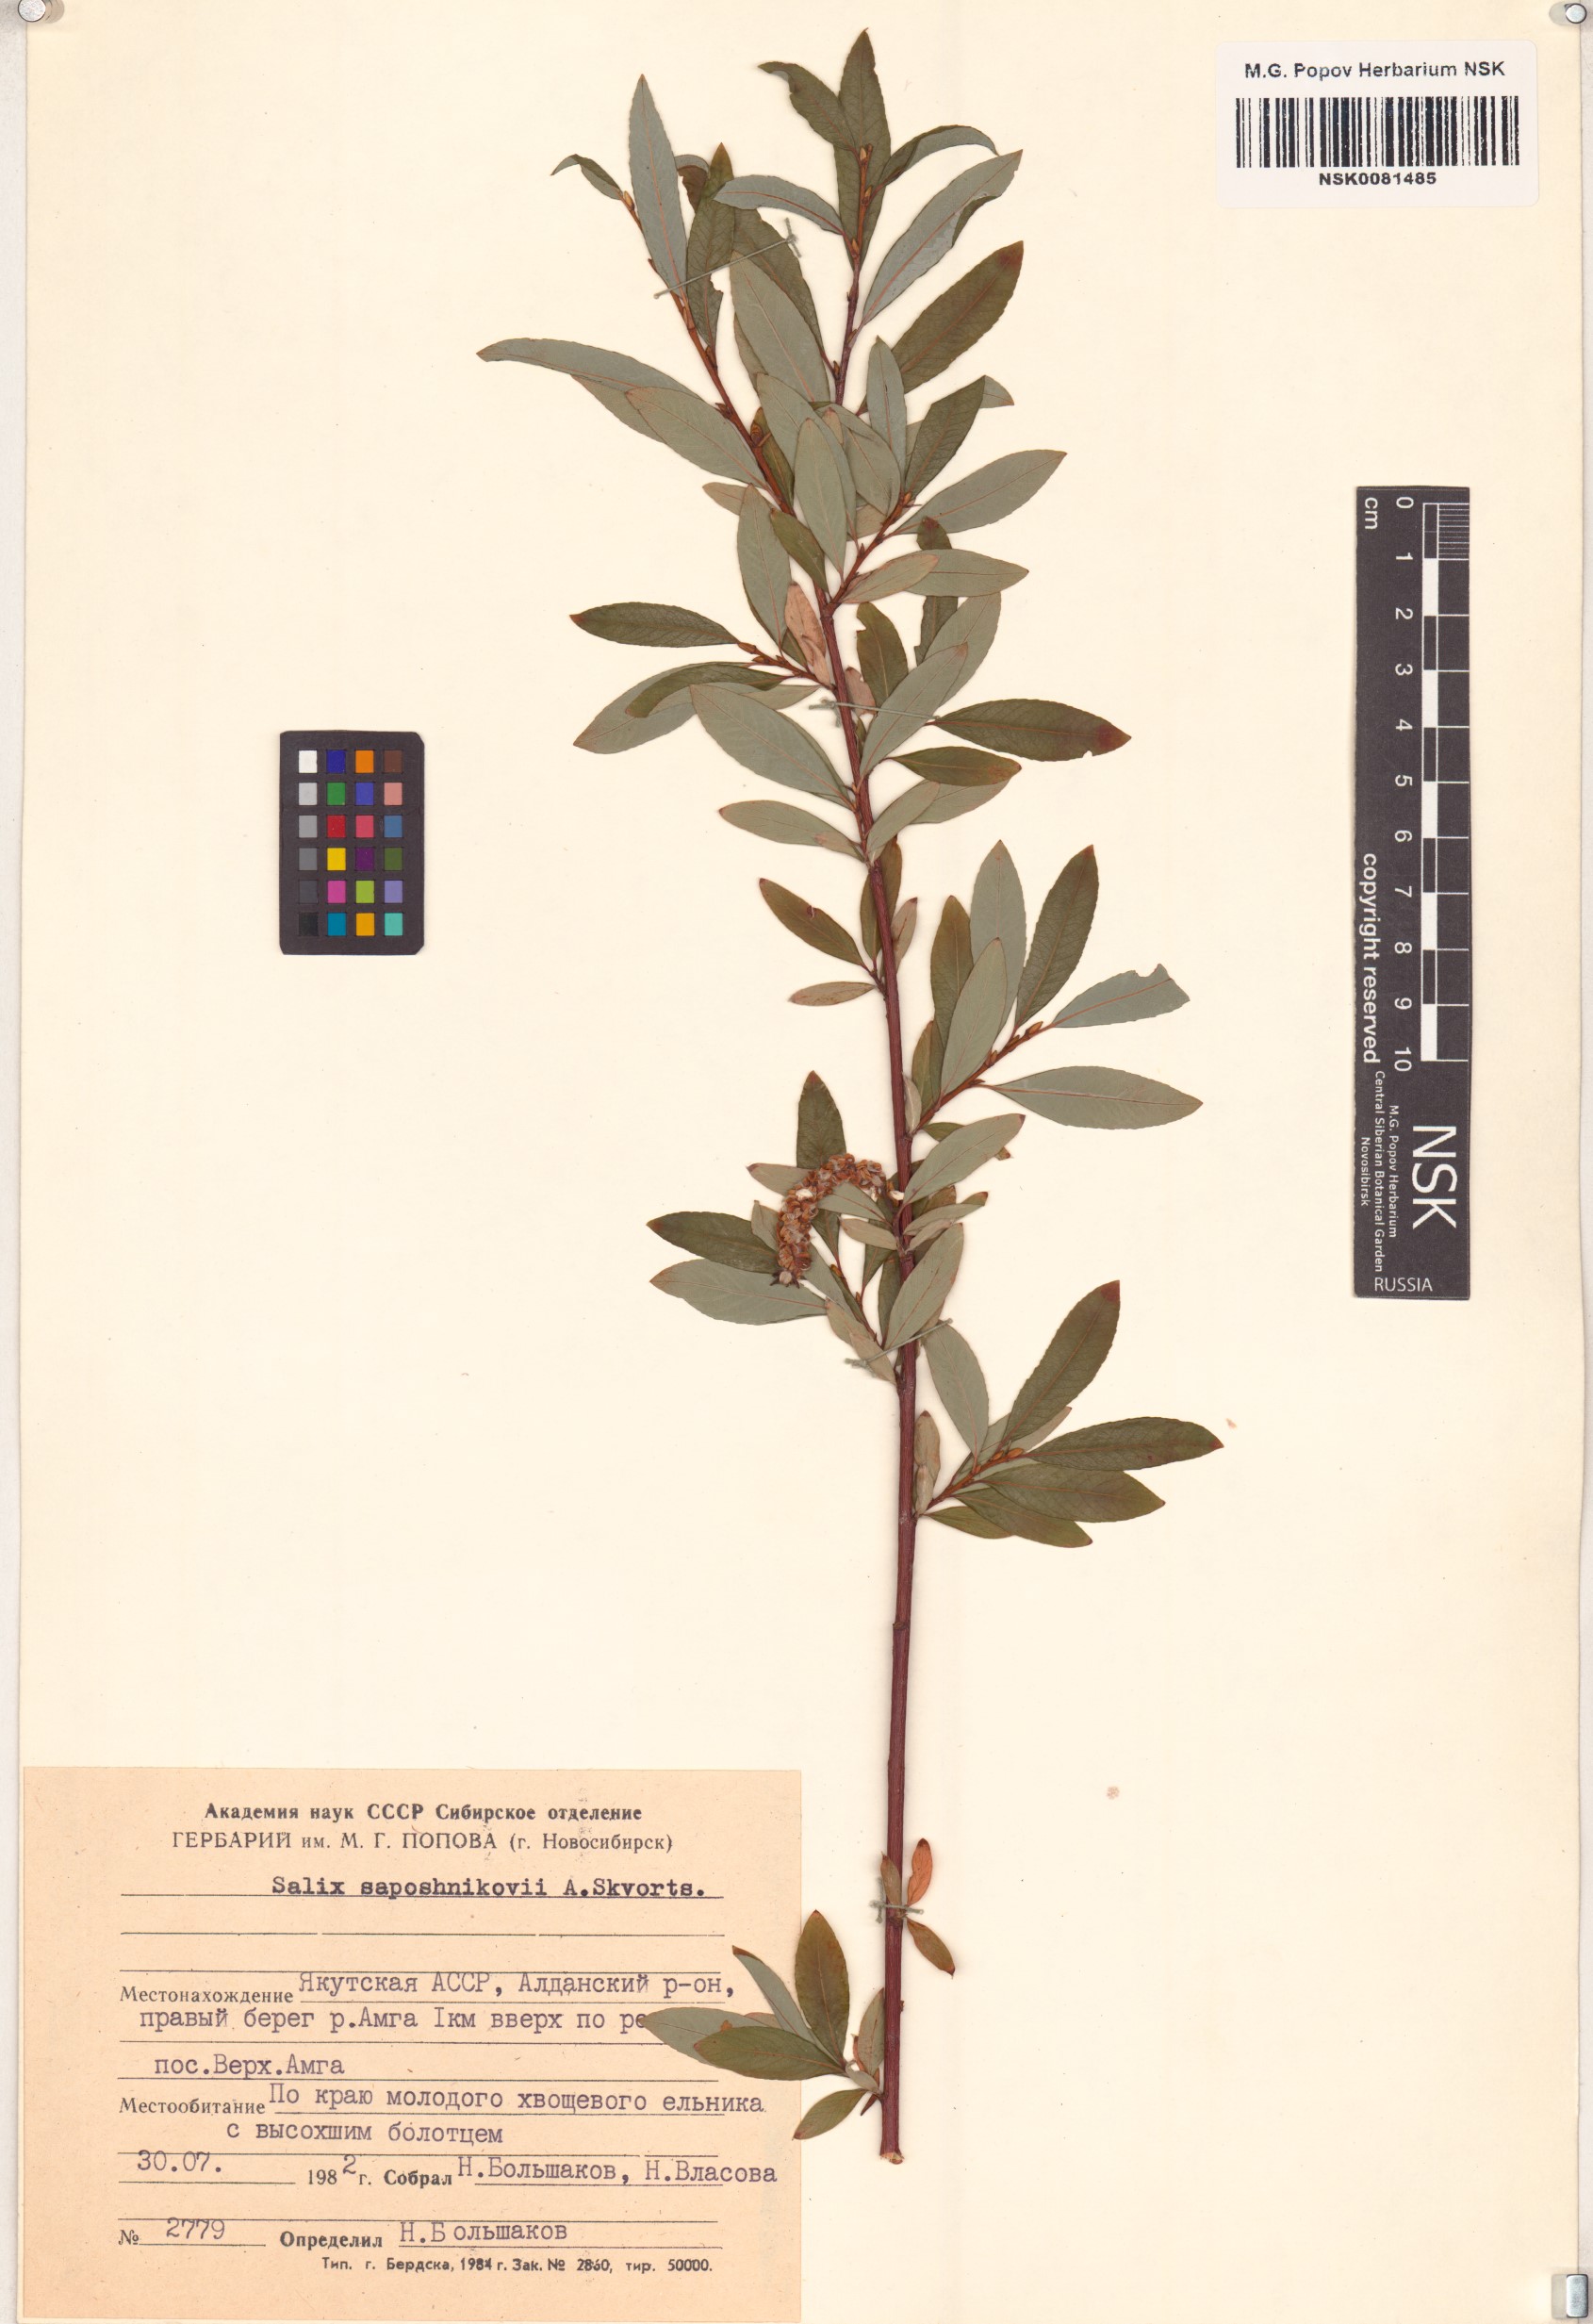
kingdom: Plantae
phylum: Tracheophyta
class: Magnoliopsida
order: Malpighiales
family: Salicaceae
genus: Salix
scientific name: Salix saposhnikovii
